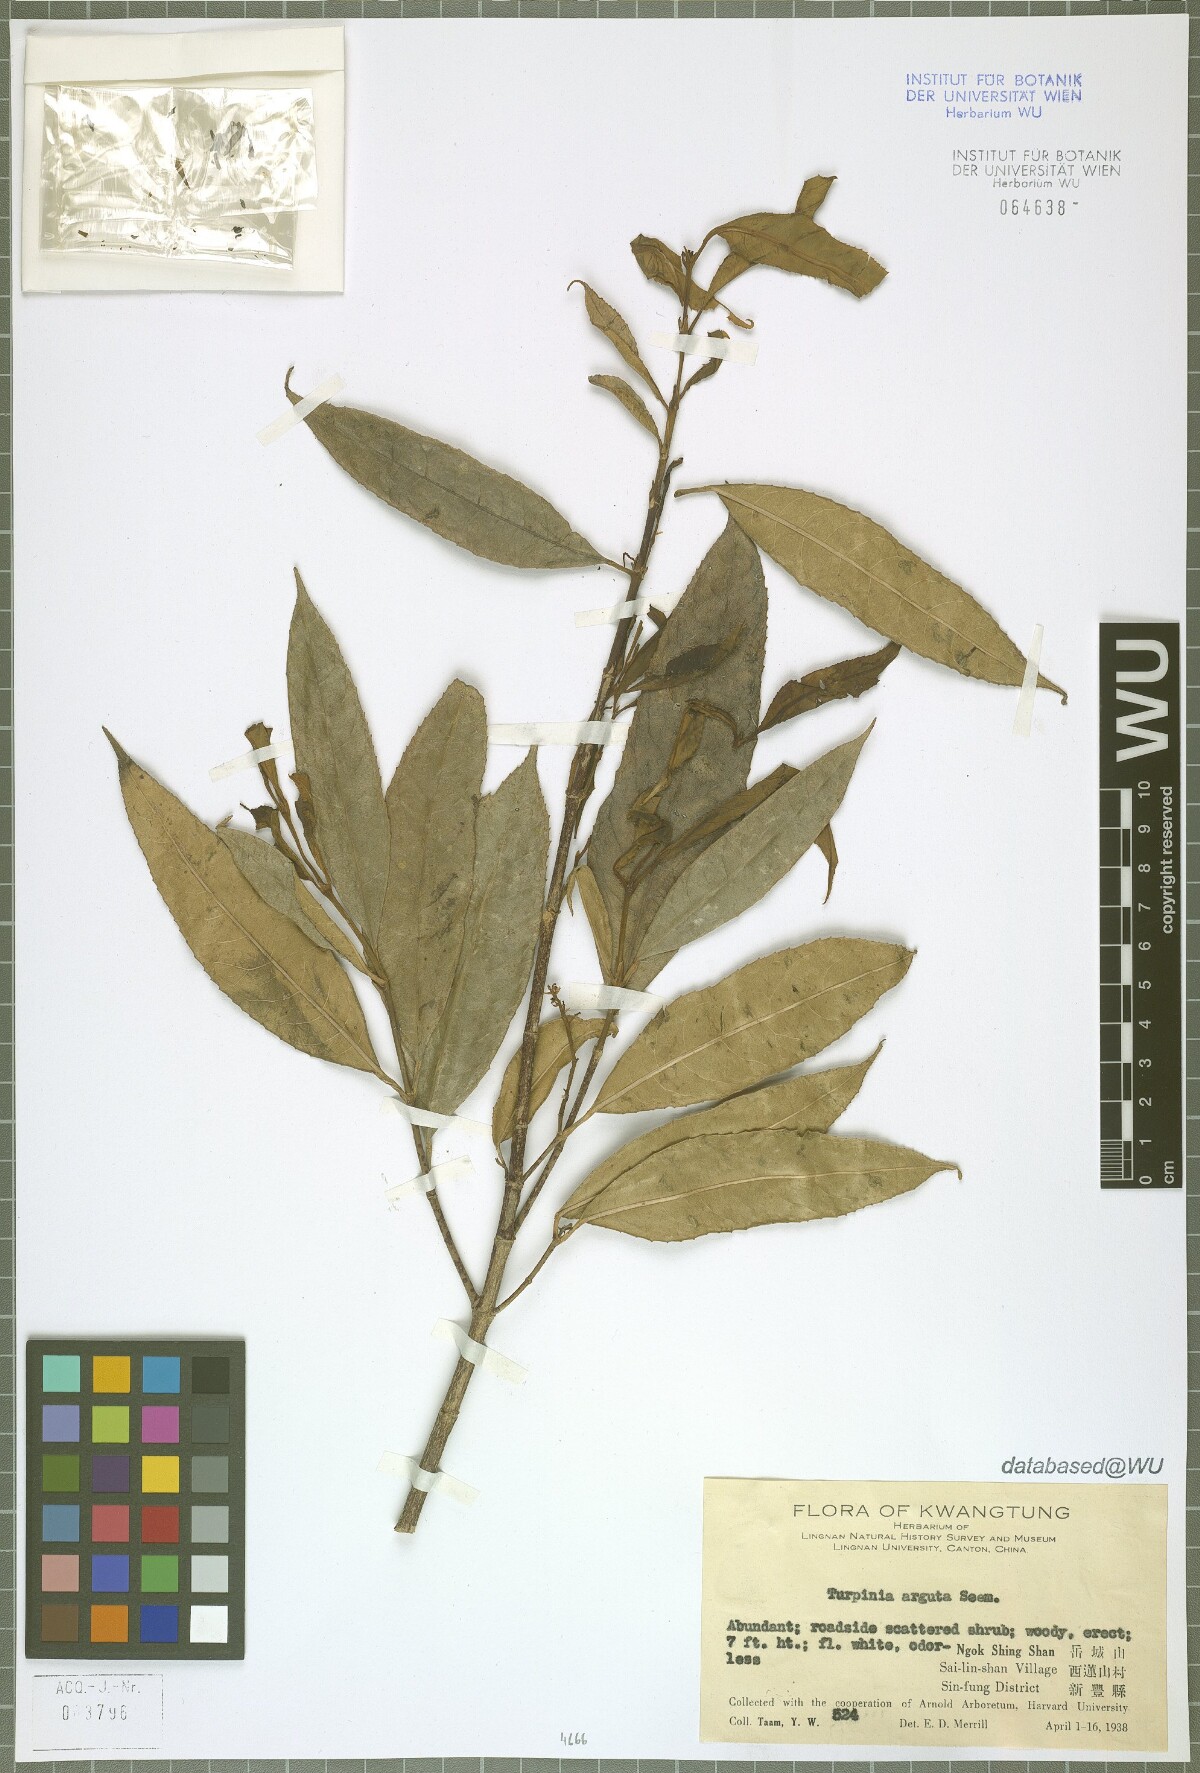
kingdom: Plantae
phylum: Tracheophyta
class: Magnoliopsida
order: Crossosomatales
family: Staphyleaceae
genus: Turpinia
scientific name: Turpinia arguta
